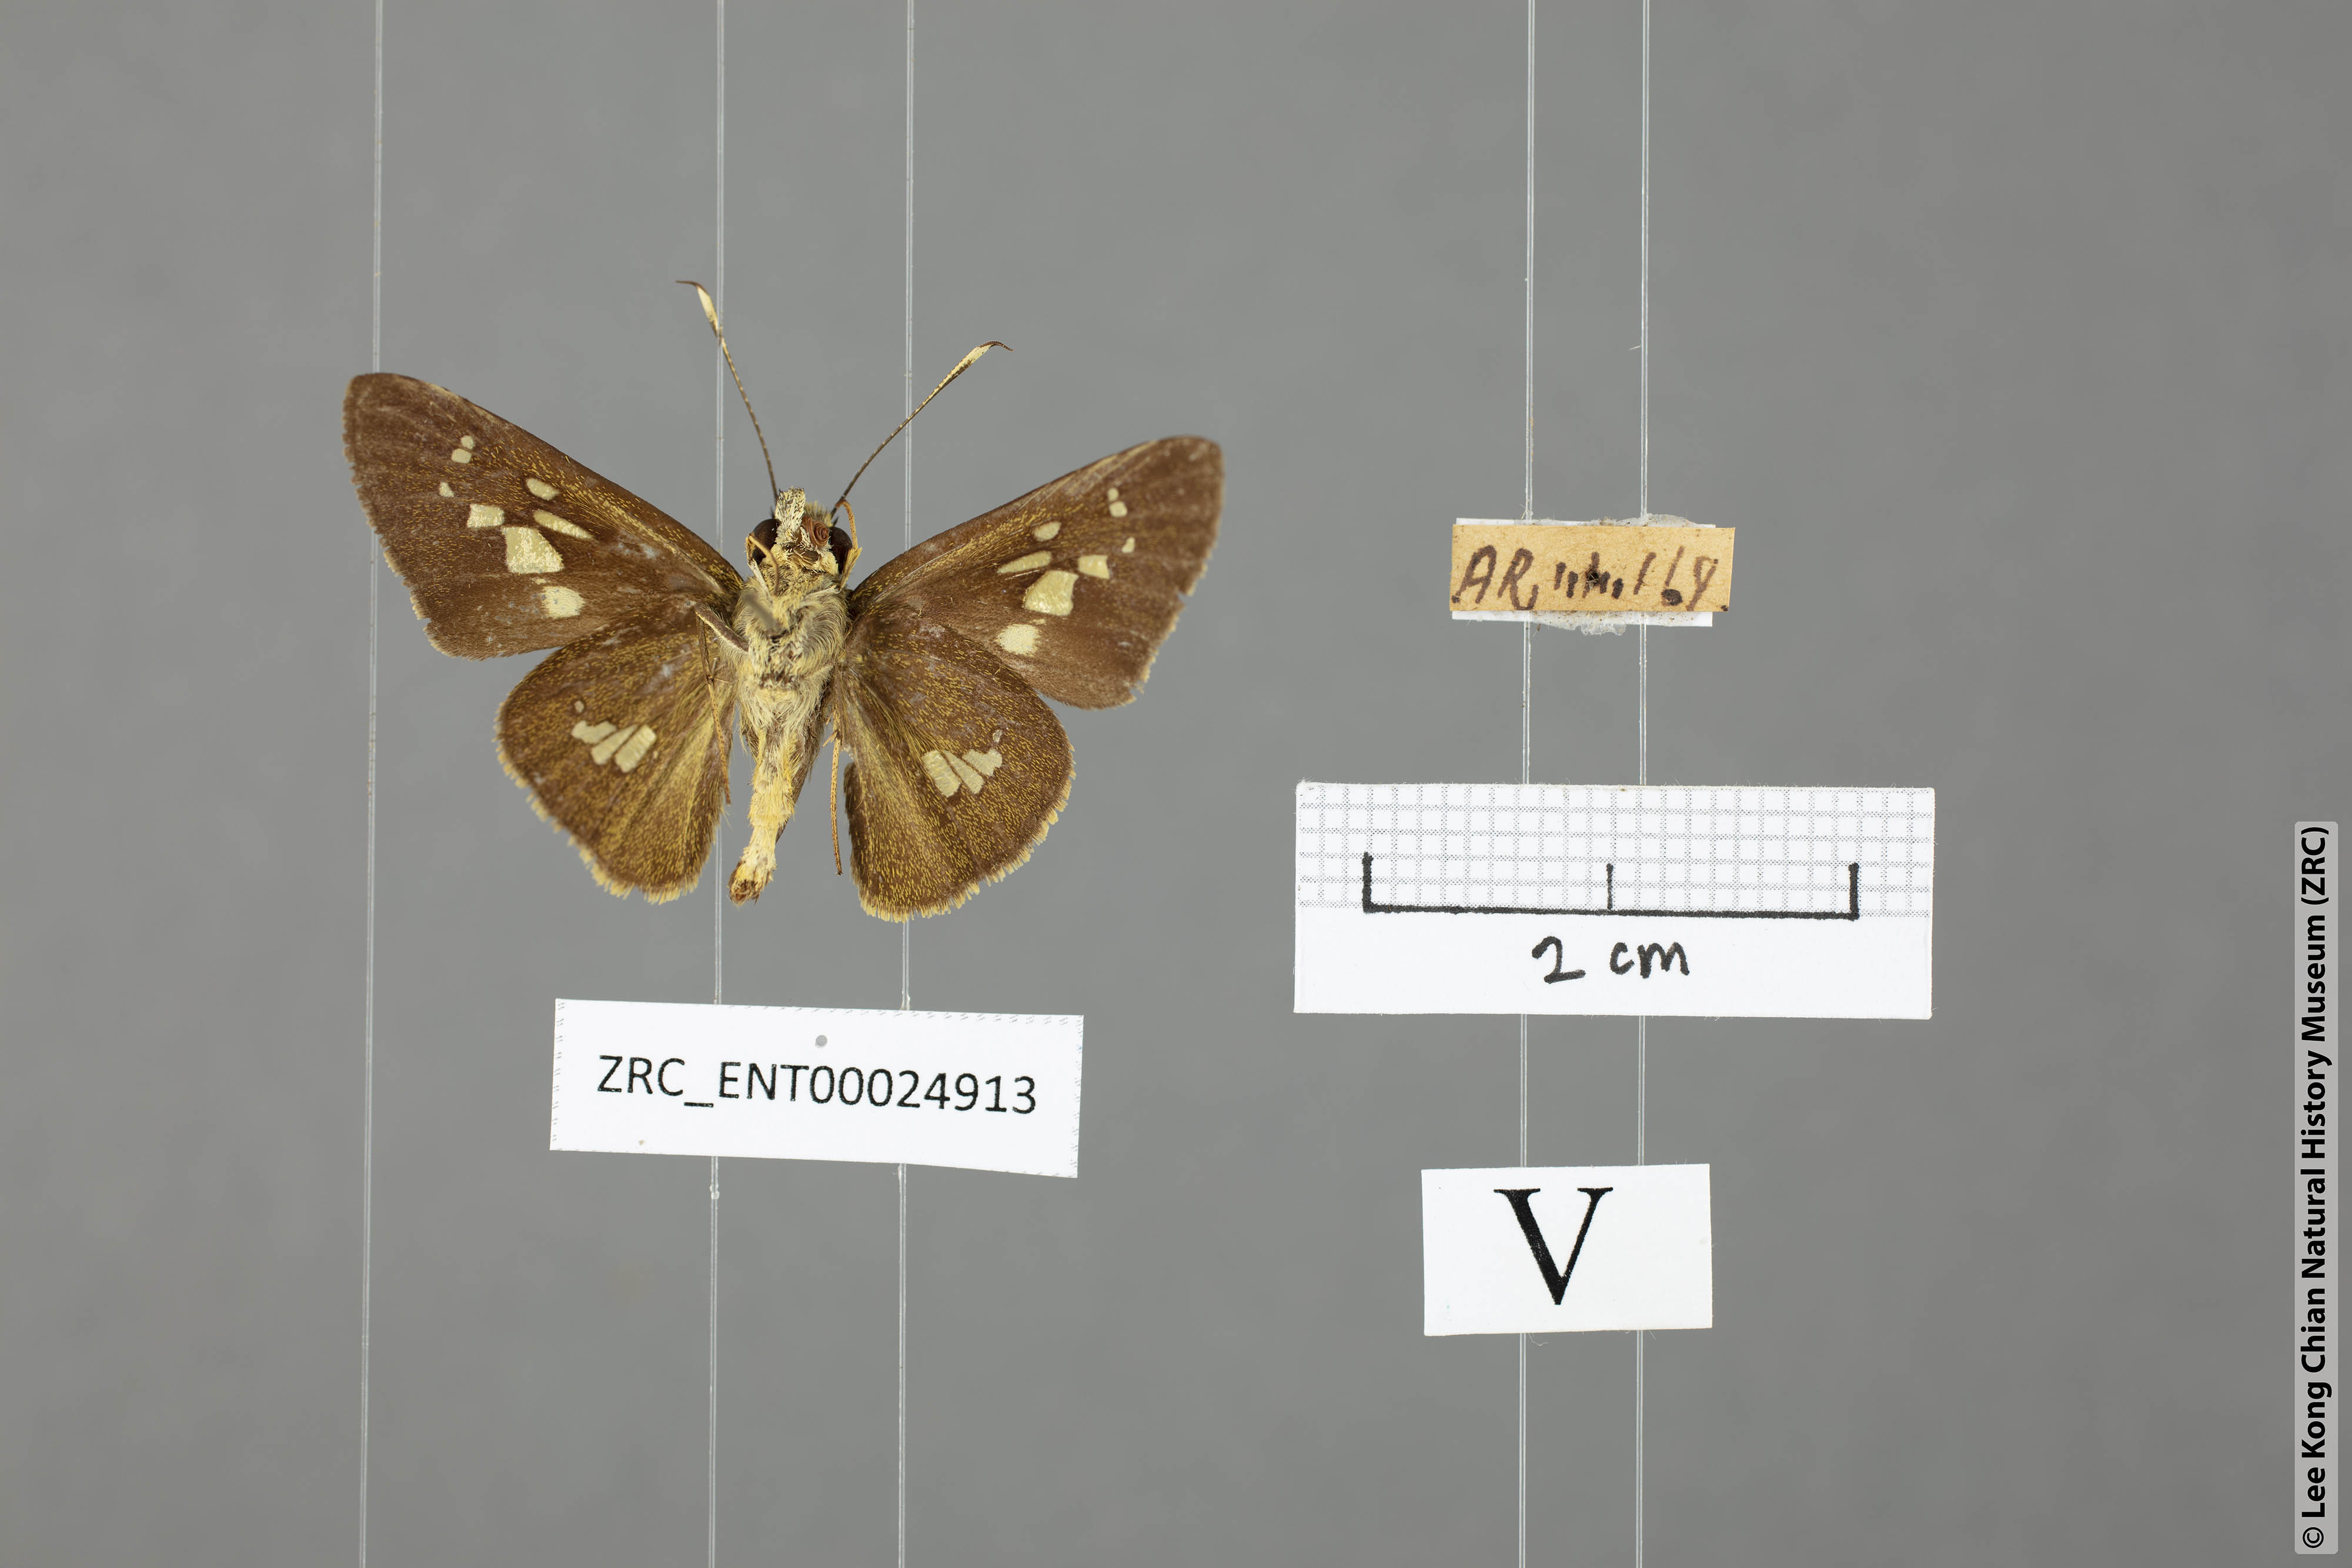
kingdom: Animalia
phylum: Arthropoda
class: Insecta
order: Lepidoptera
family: Hesperiidae
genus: Isma
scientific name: Isma umbrosa
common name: Large long-banded flitter
